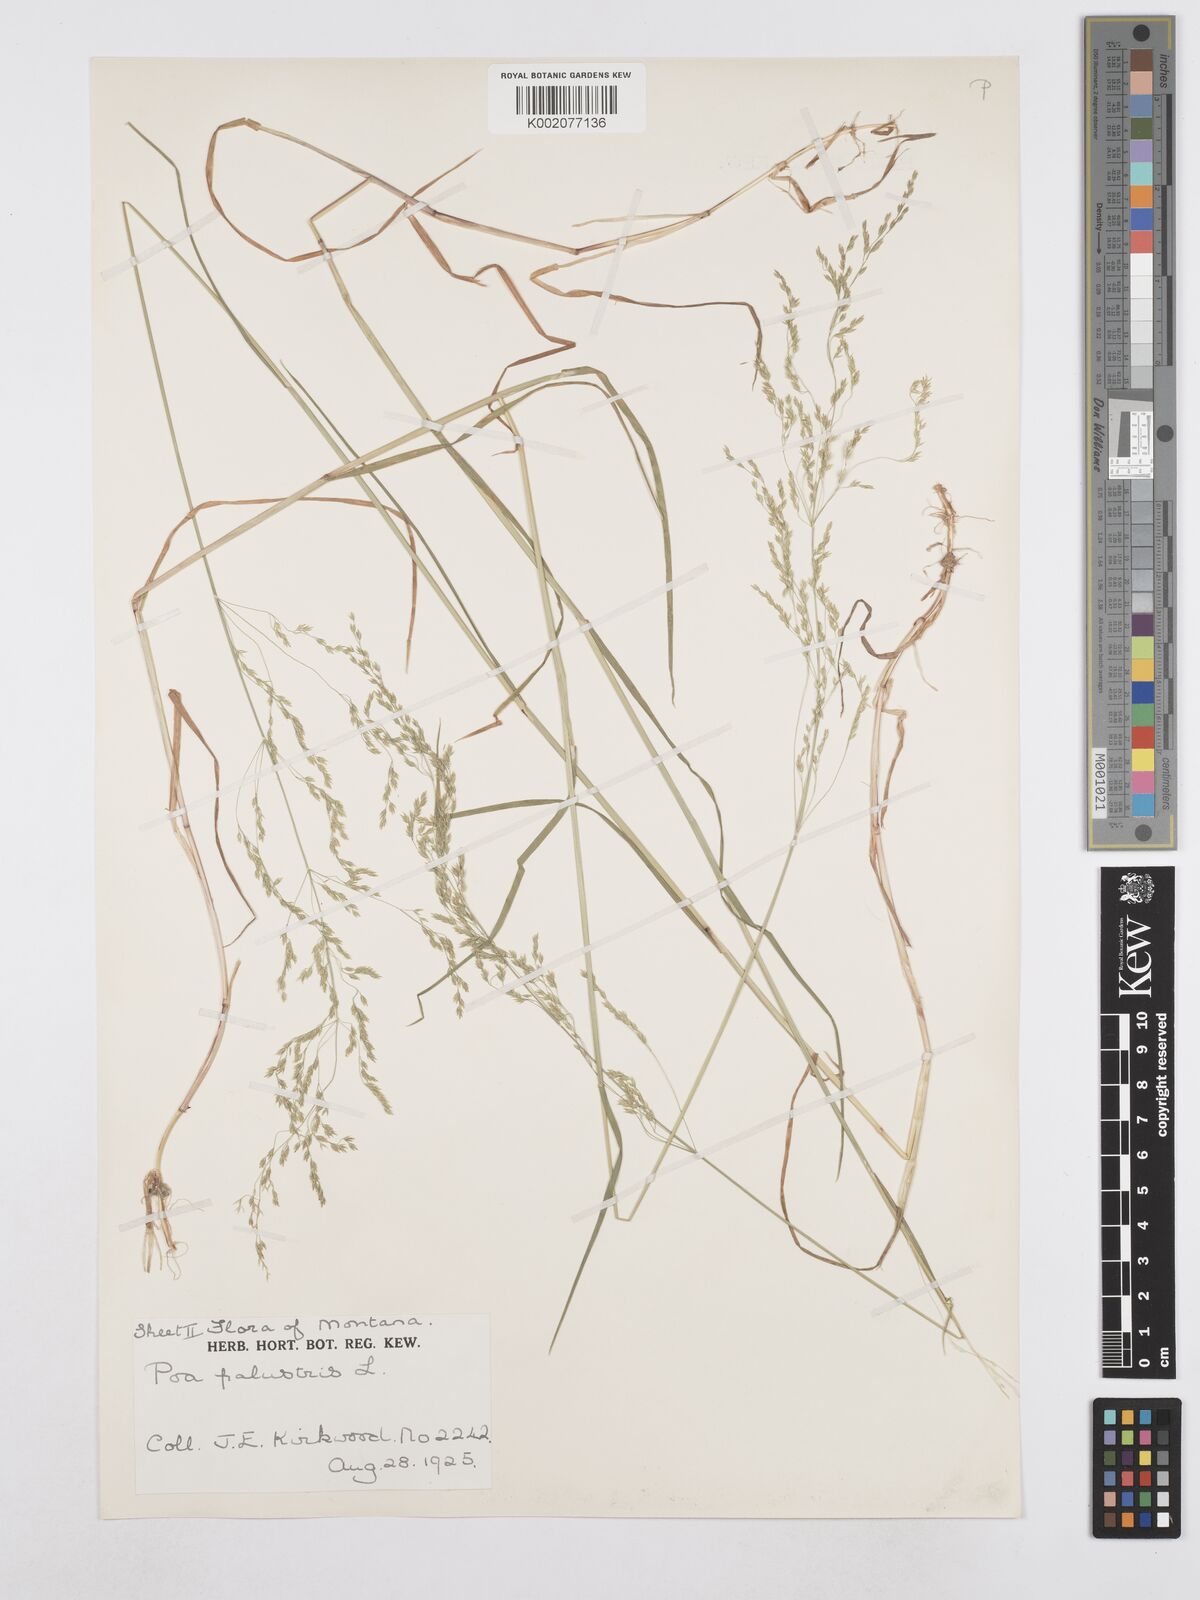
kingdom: Plantae
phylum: Tracheophyta
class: Liliopsida
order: Poales
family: Poaceae
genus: Poa
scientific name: Poa palustris
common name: Swamp meadow-grass
